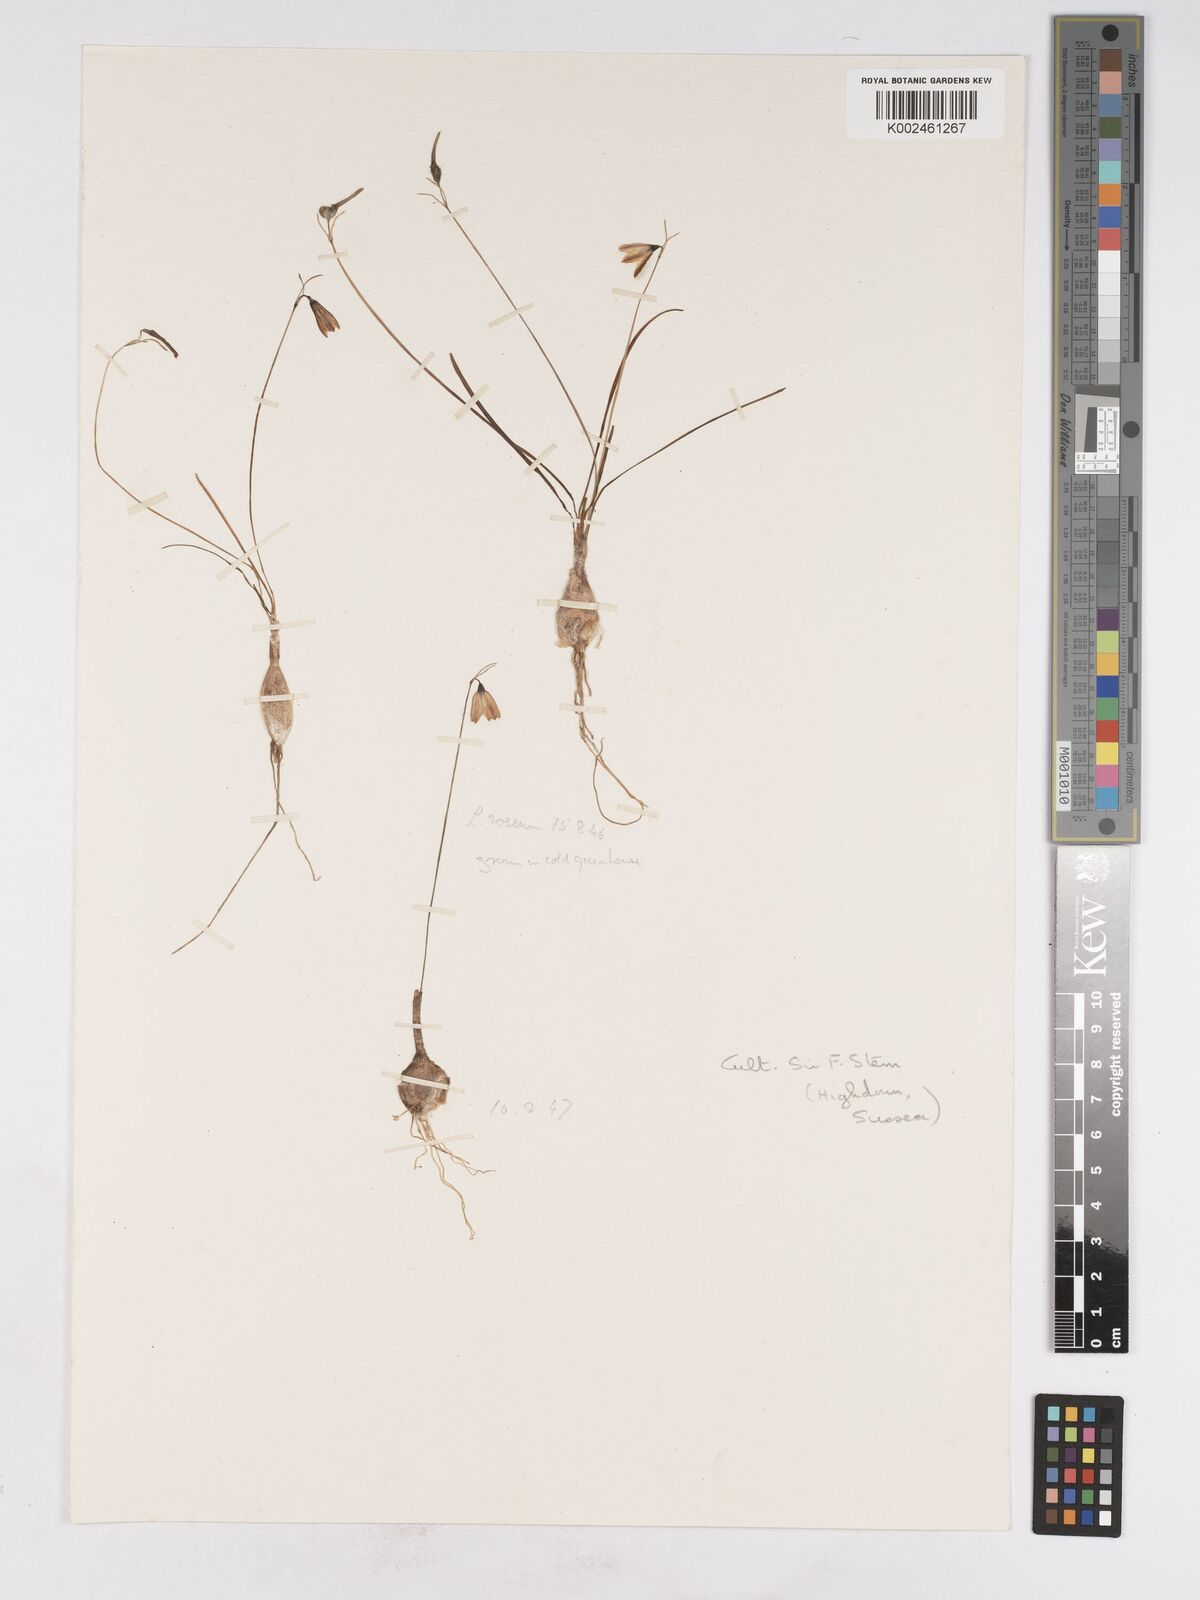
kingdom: Plantae
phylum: Tracheophyta
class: Liliopsida
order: Asparagales
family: Amaryllidaceae
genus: Acis
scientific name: Acis rosea
